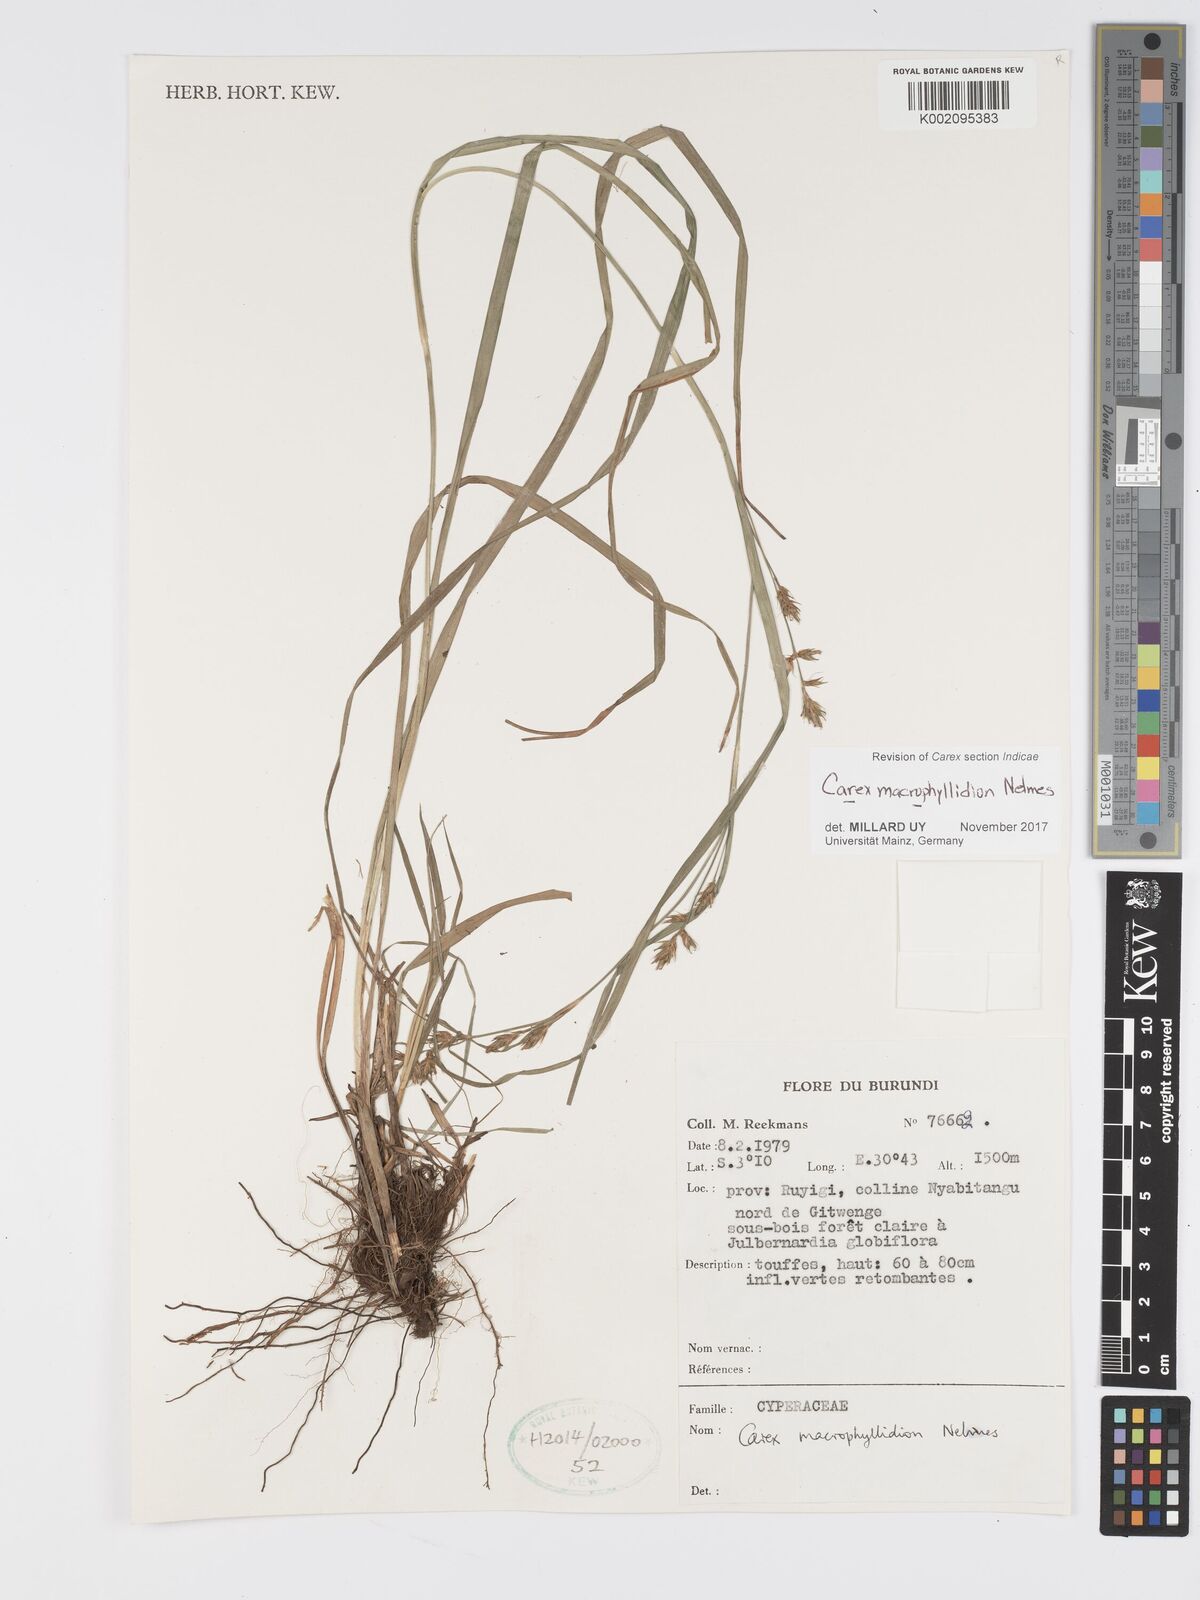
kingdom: Plantae
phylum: Tracheophyta
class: Liliopsida
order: Poales
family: Cyperaceae
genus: Carex
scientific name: Carex macrophyllidion
